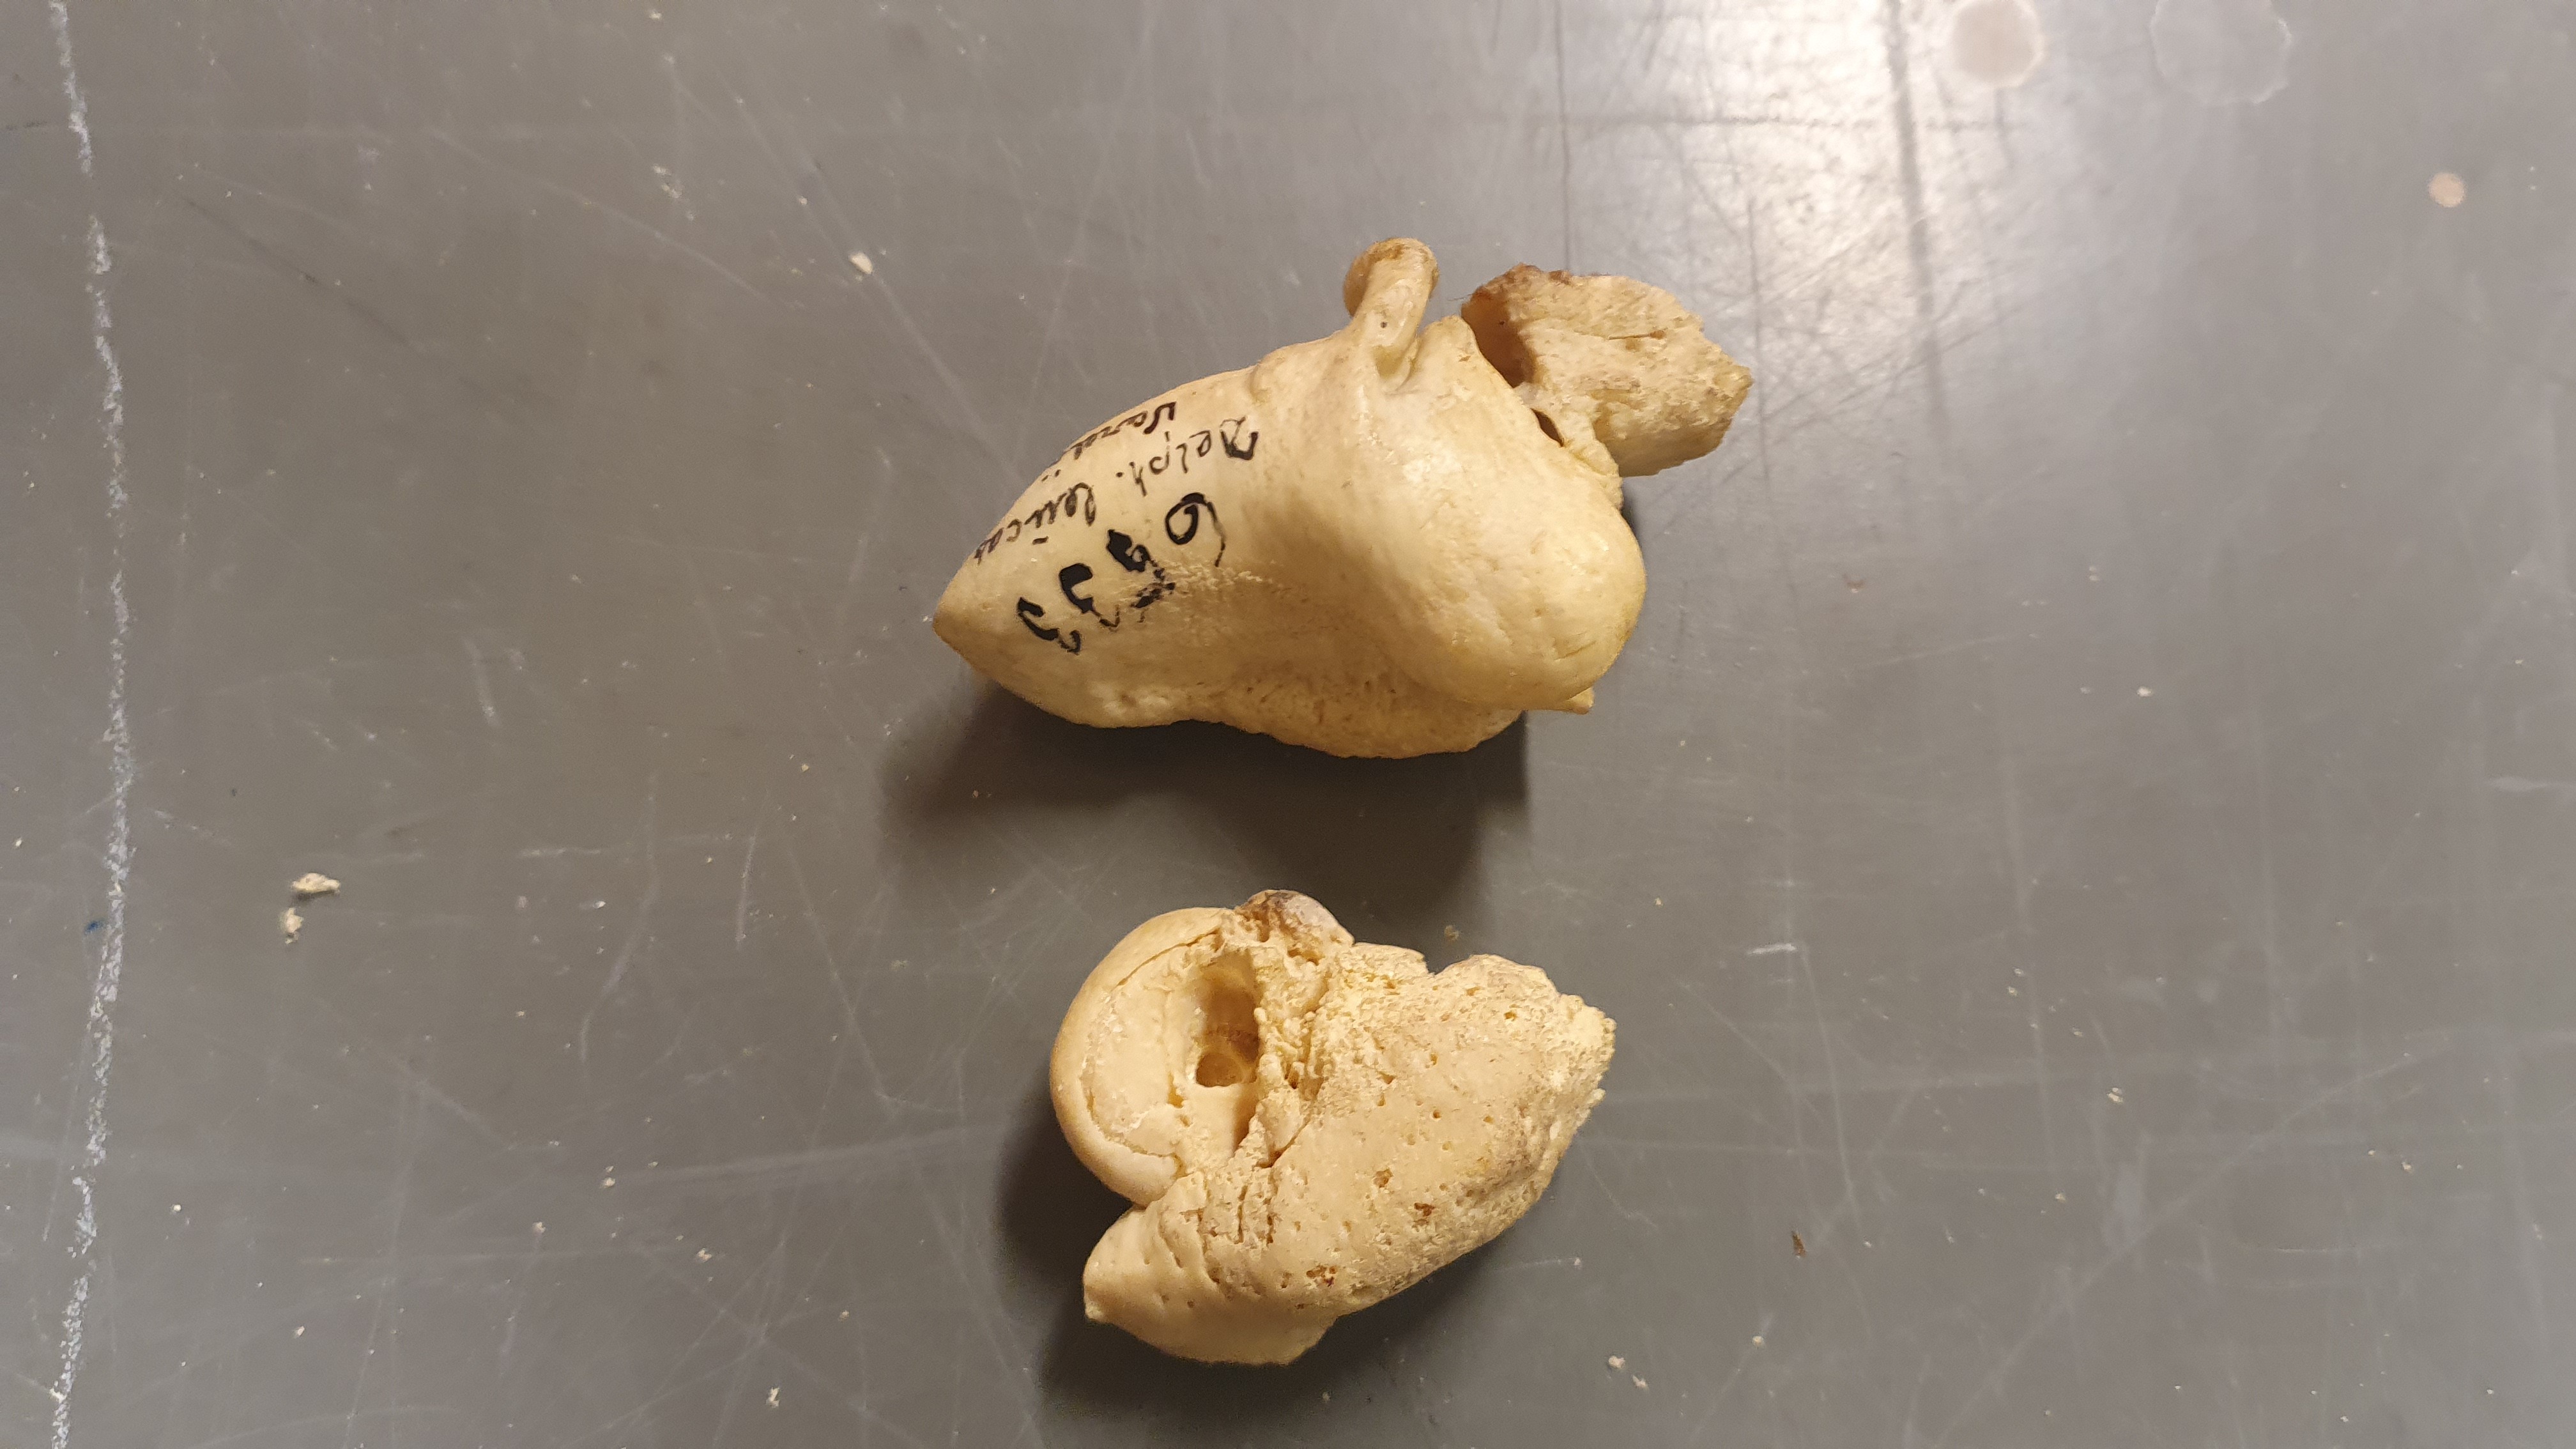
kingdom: Animalia
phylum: Chordata
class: Mammalia
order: Cetacea
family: Monodontidae
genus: Delphinapterus
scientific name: Delphinapterus leucas
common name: Beluga
